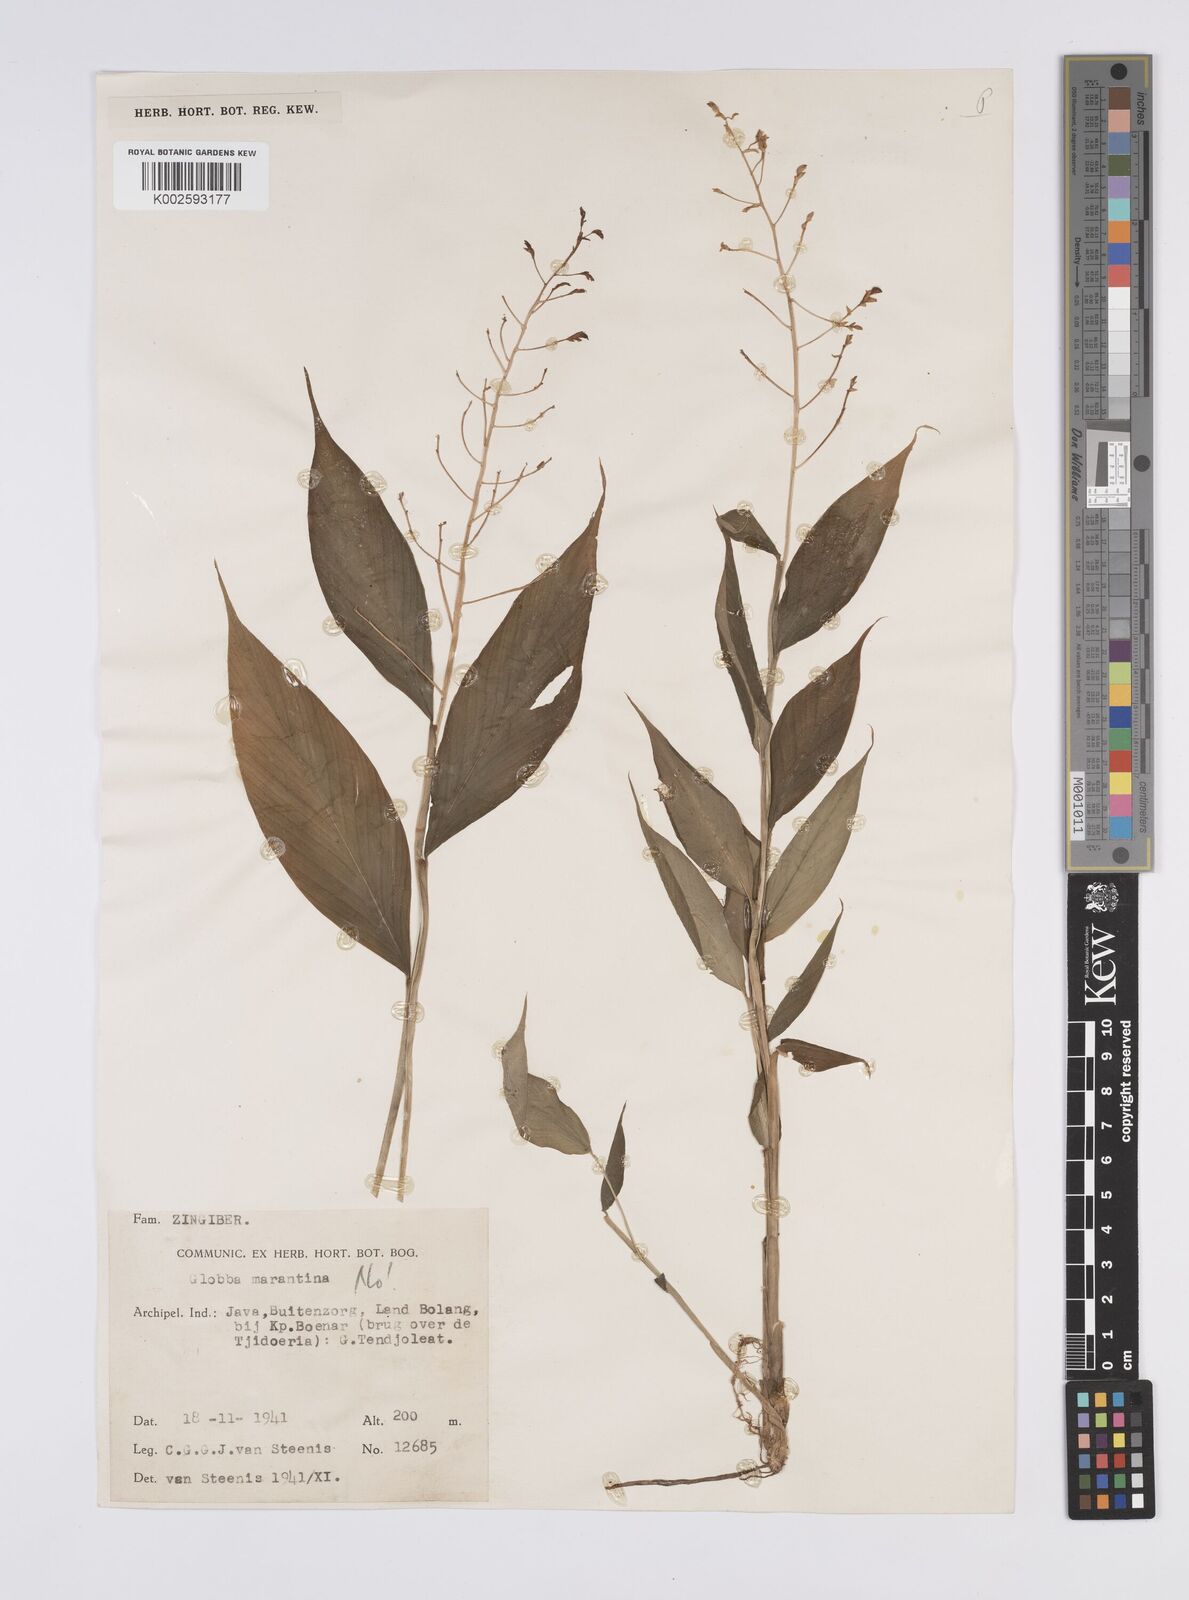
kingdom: Plantae
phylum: Tracheophyta
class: Liliopsida
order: Zingiberales
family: Zingiberaceae
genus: Globba
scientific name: Globba
